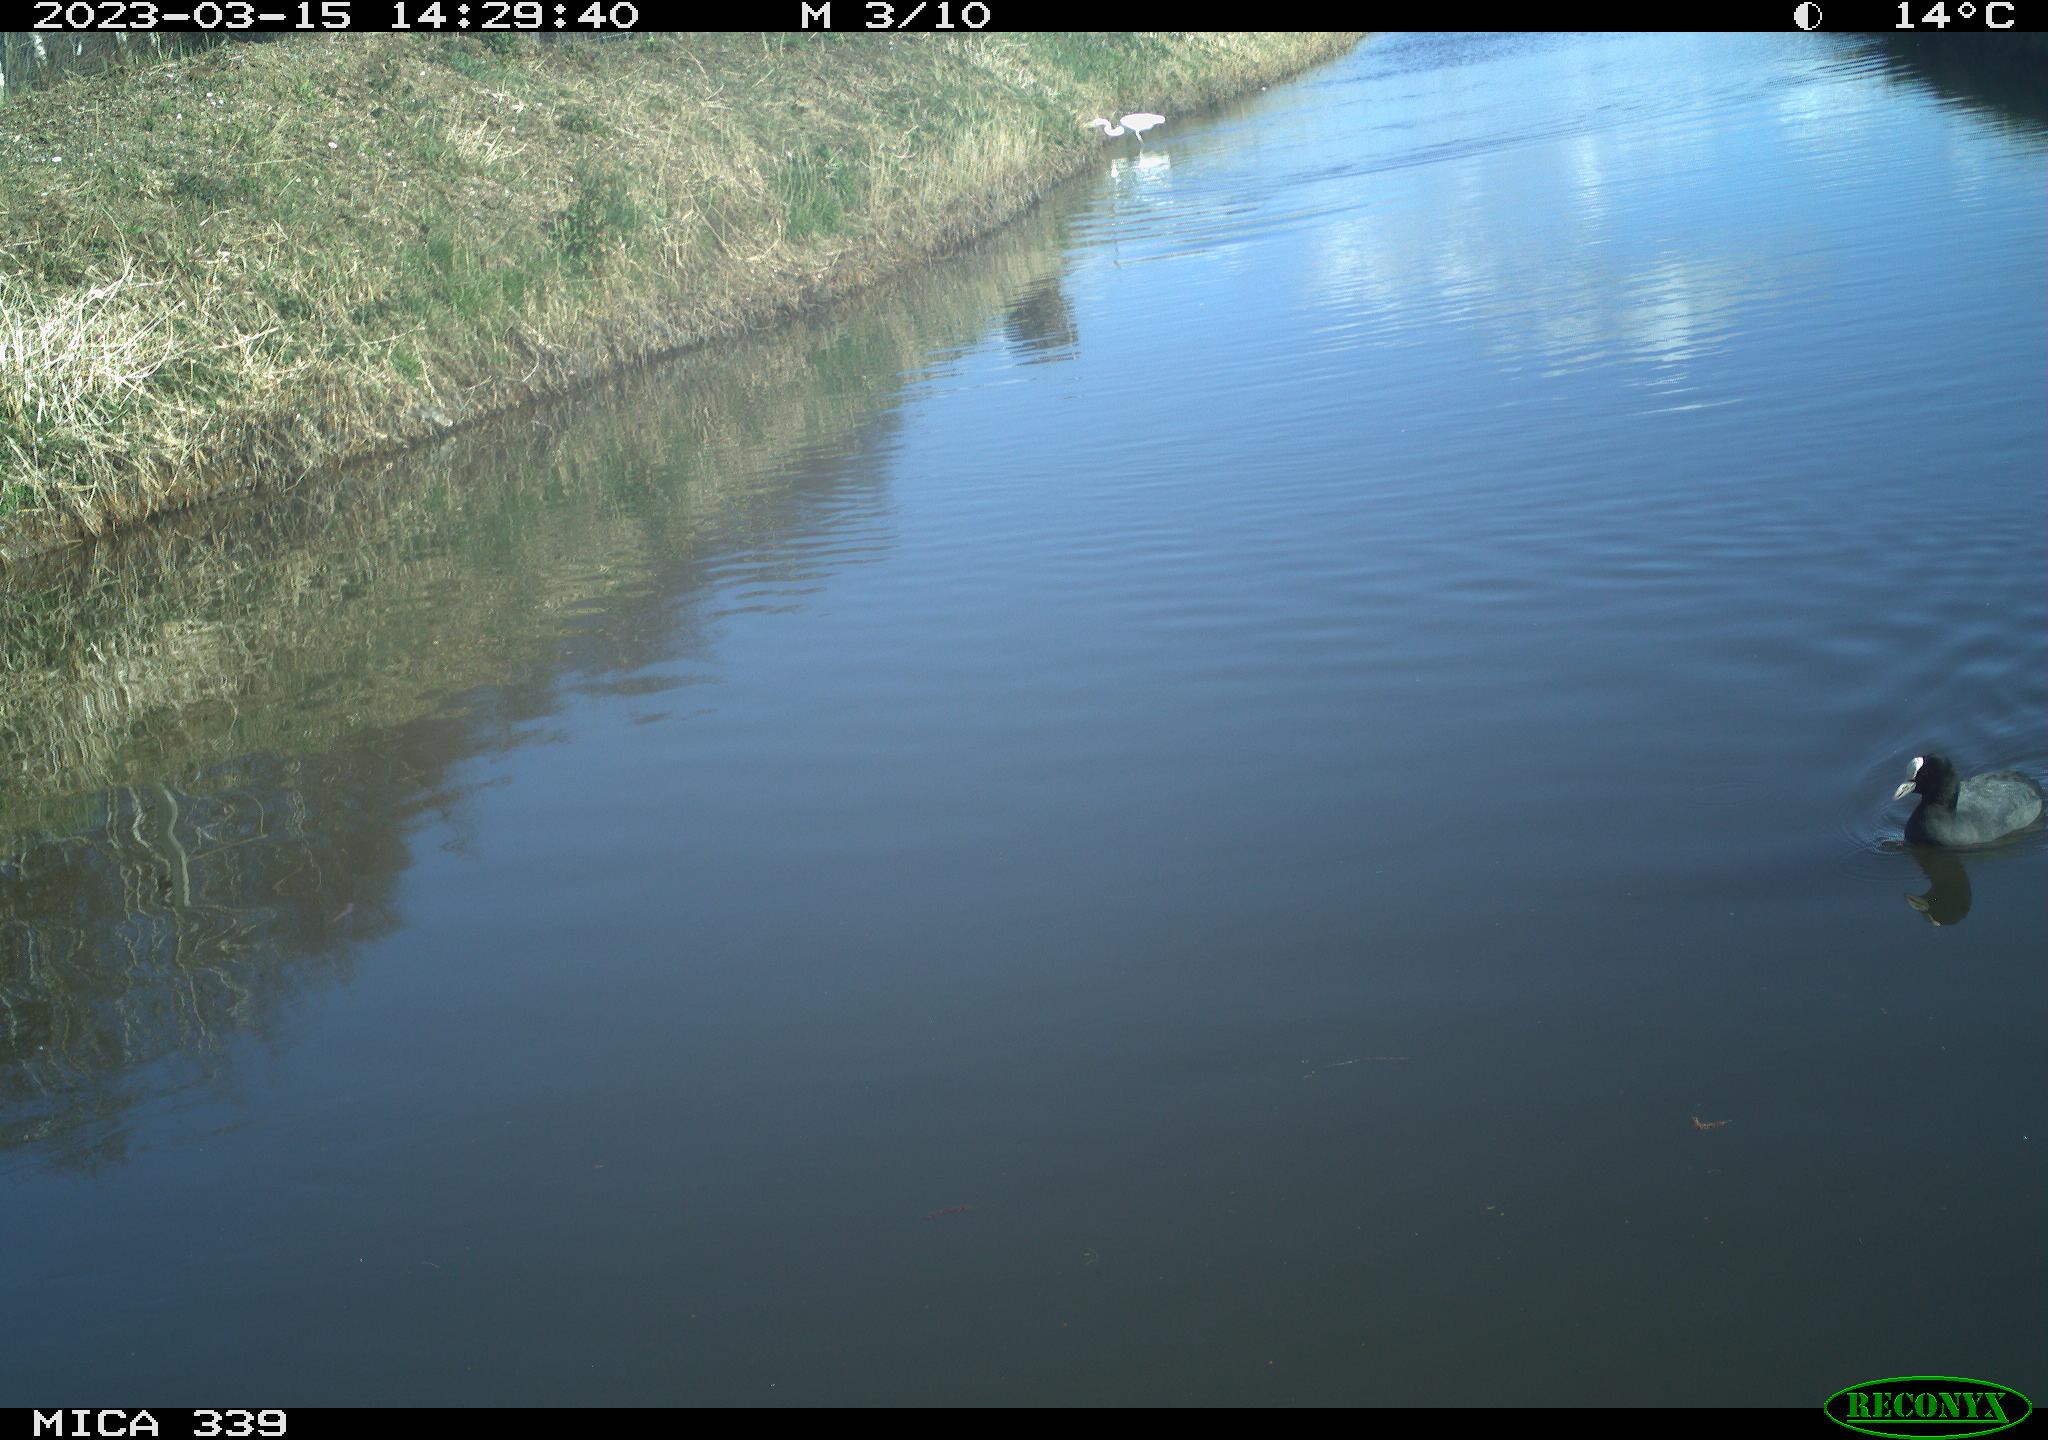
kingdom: Animalia
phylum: Chordata
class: Aves
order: Gruiformes
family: Rallidae
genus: Fulica
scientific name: Fulica atra
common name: Eurasian coot
